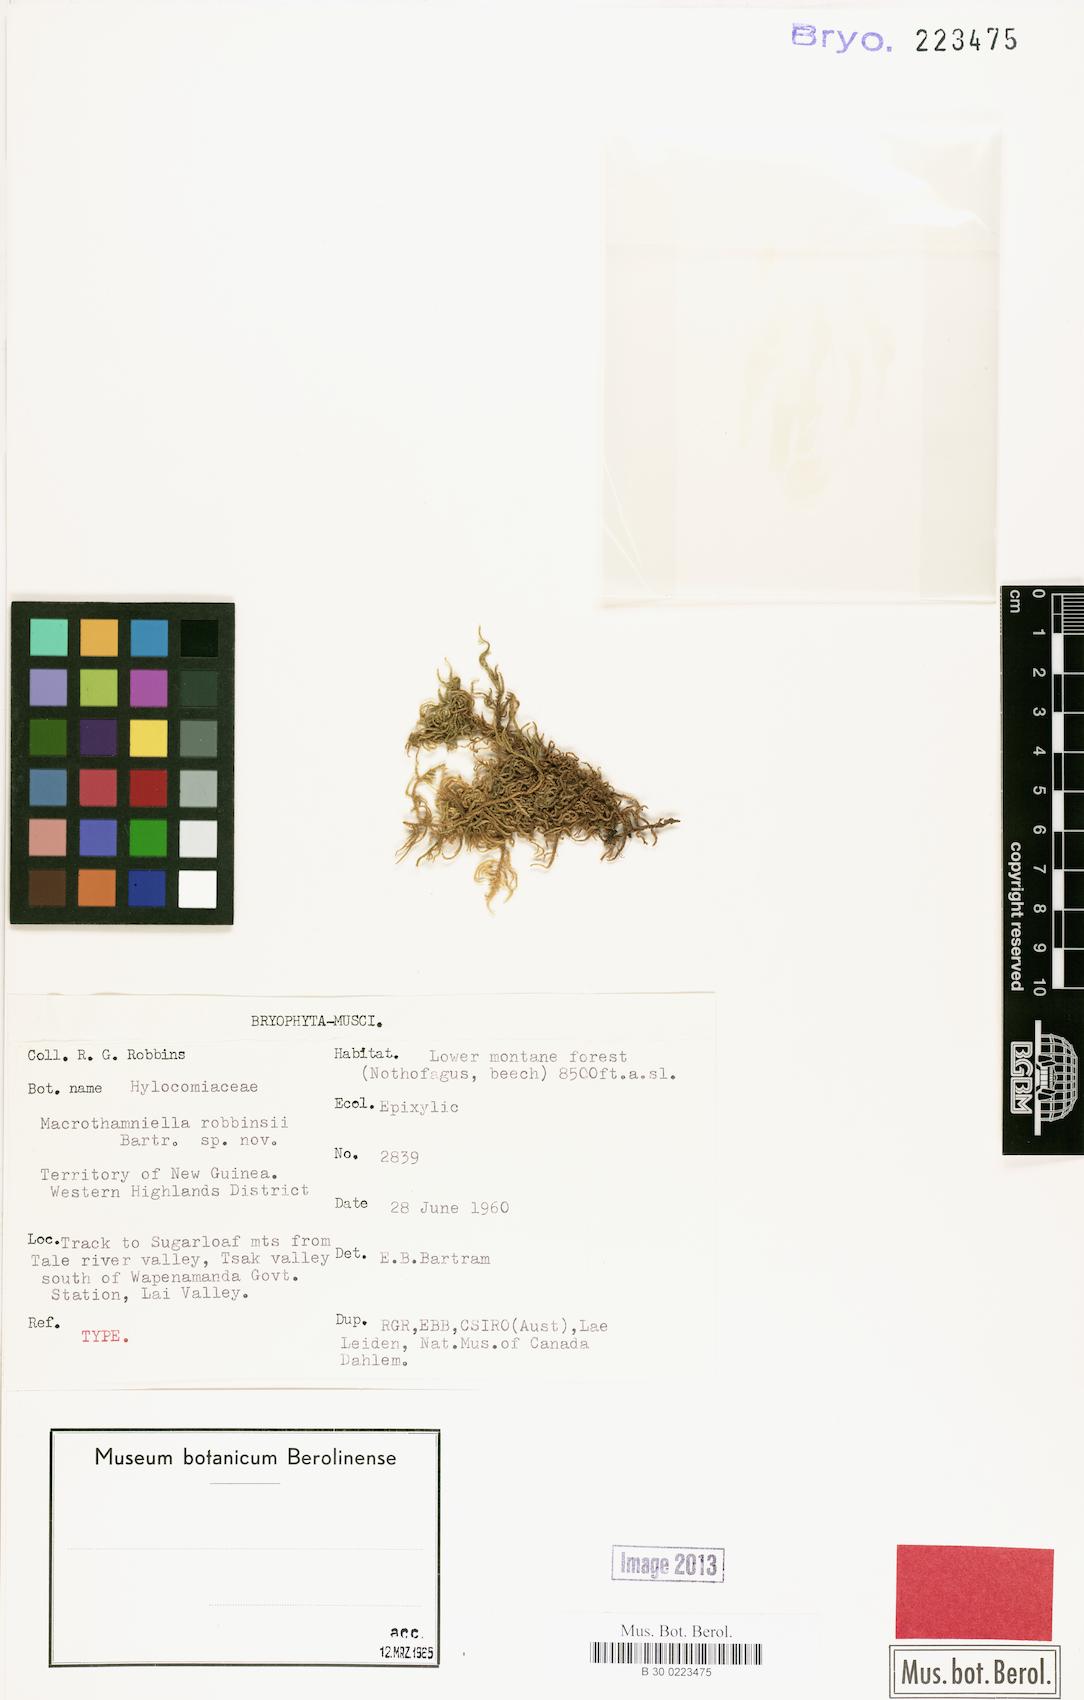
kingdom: Plantae
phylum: Bryophyta
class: Bryopsida
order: Hypnales
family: Hypnaceae
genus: Macrothamniella
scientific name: Macrothamniella robbinsii
